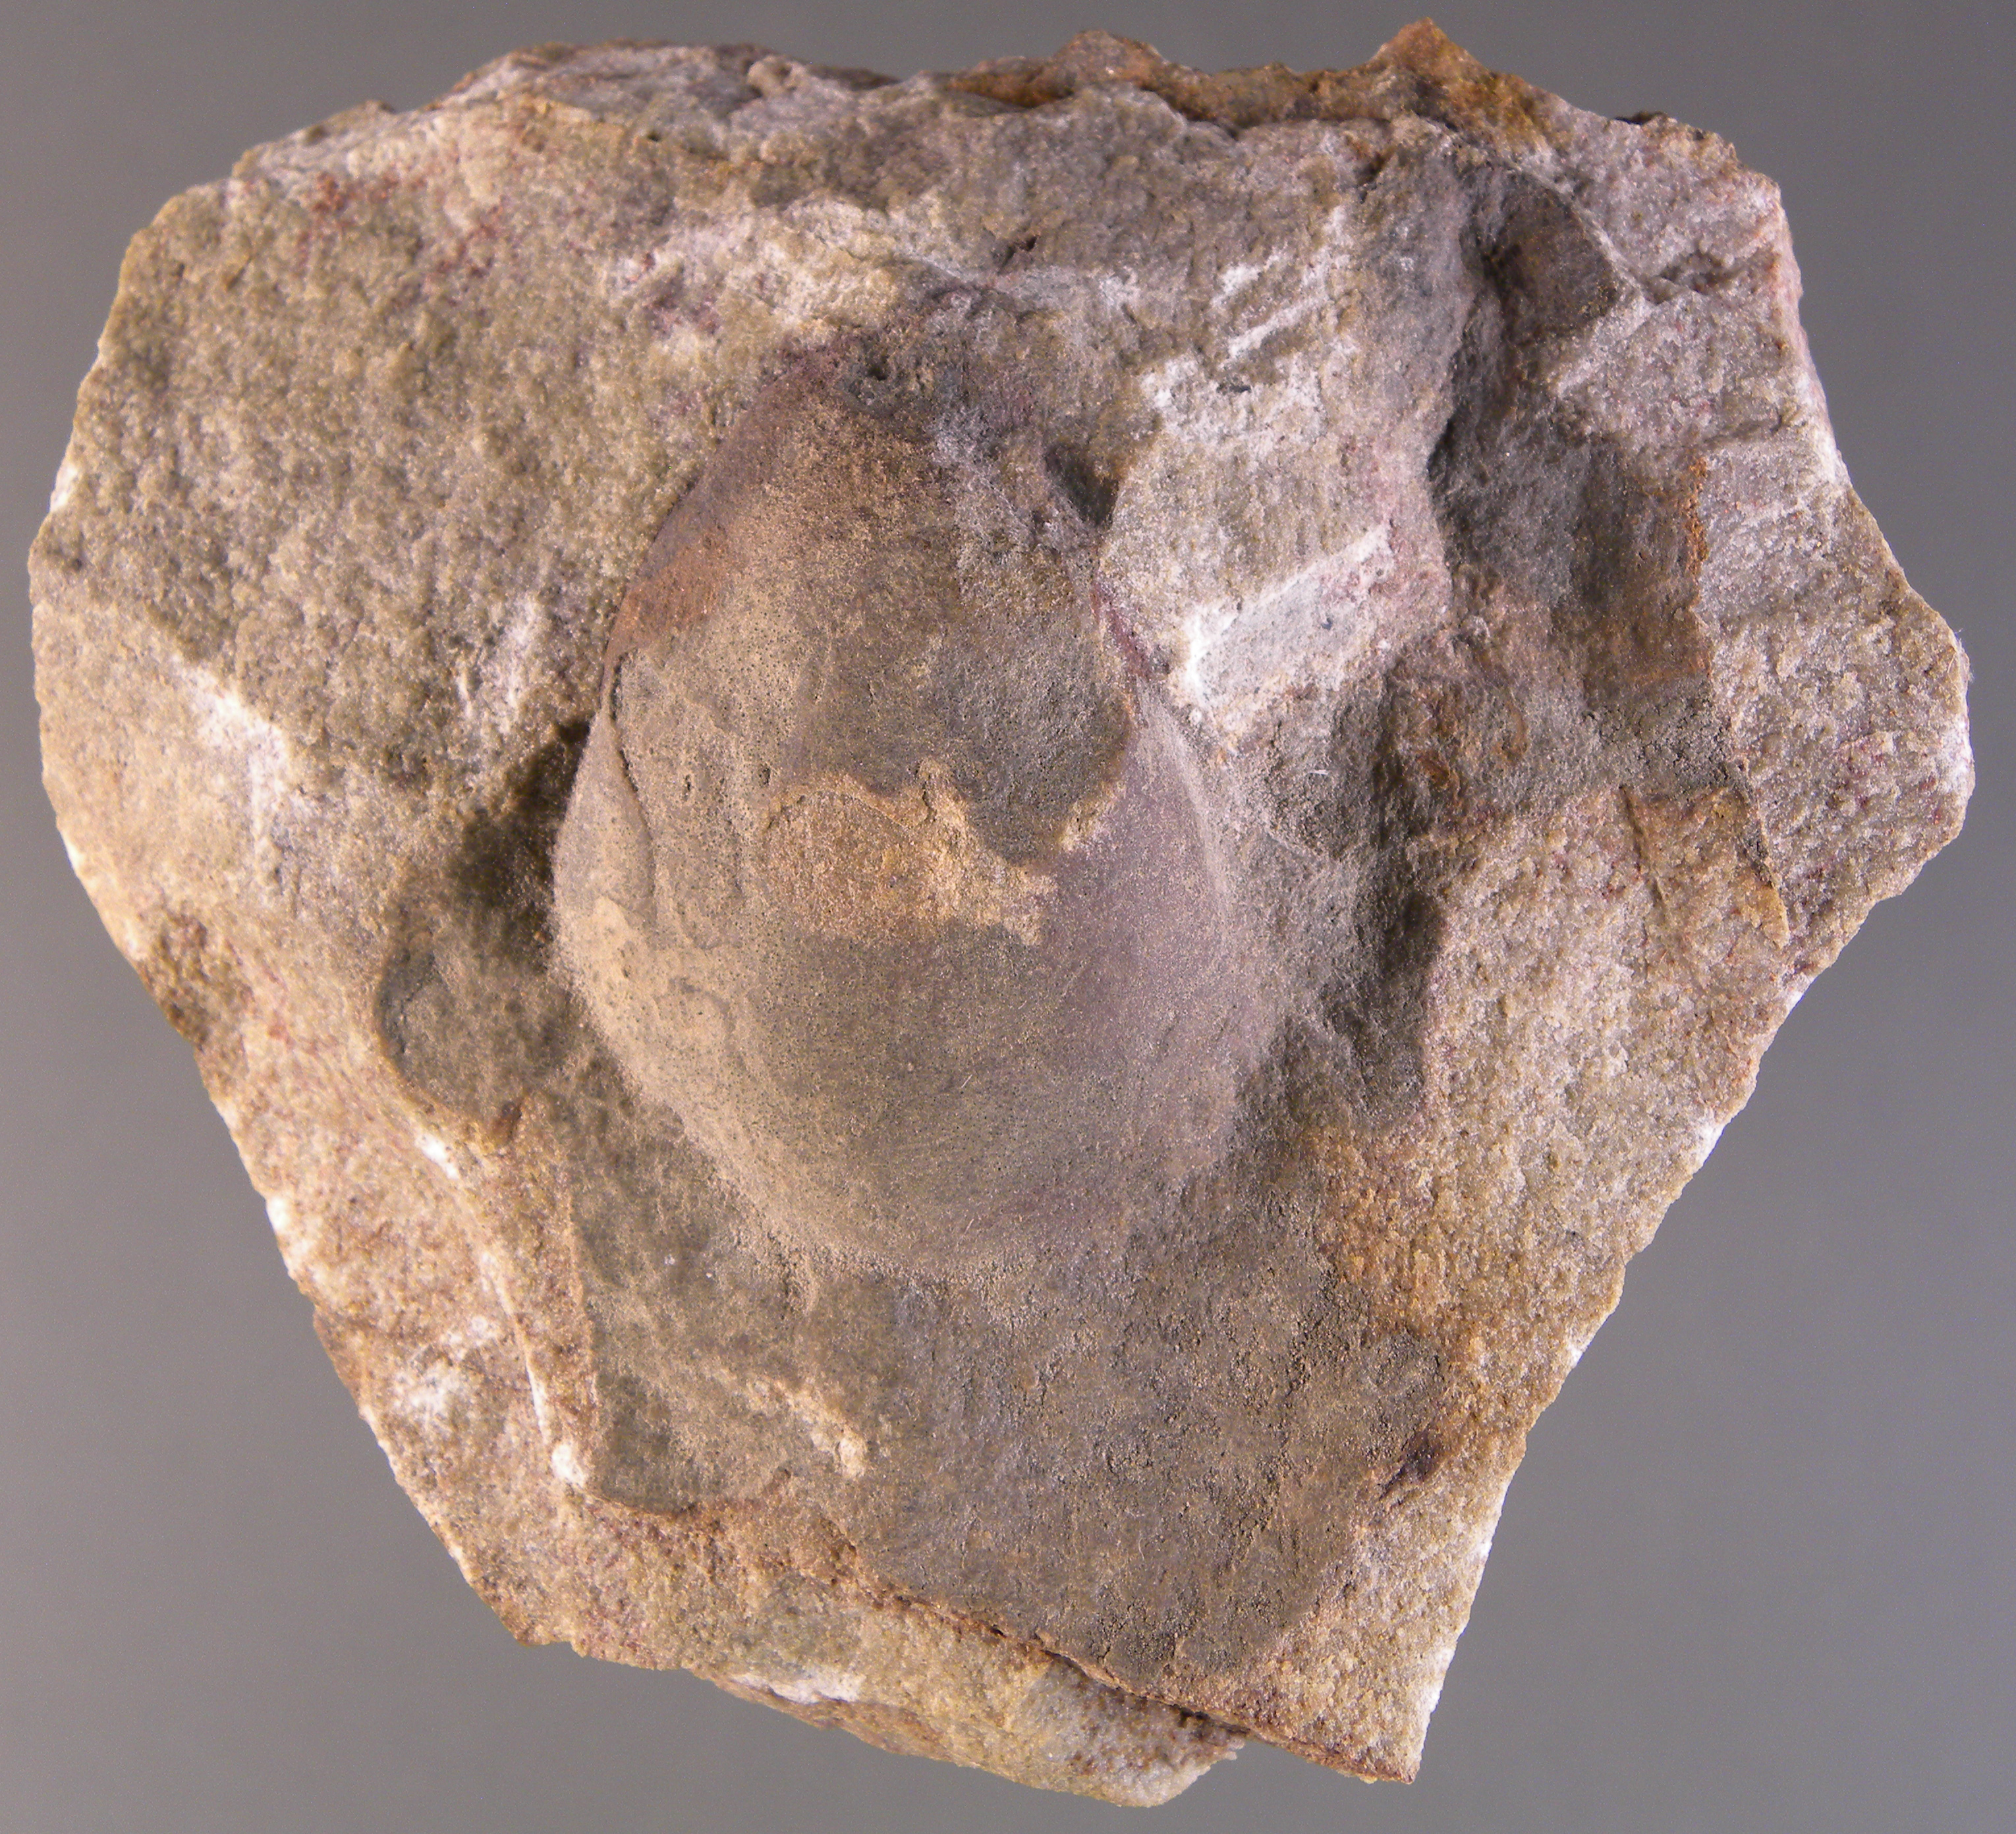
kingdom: Animalia
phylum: Mollusca
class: Bivalvia
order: Myalinida
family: Ambonychiidae
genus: Mytilarca
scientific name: Mytilarca
